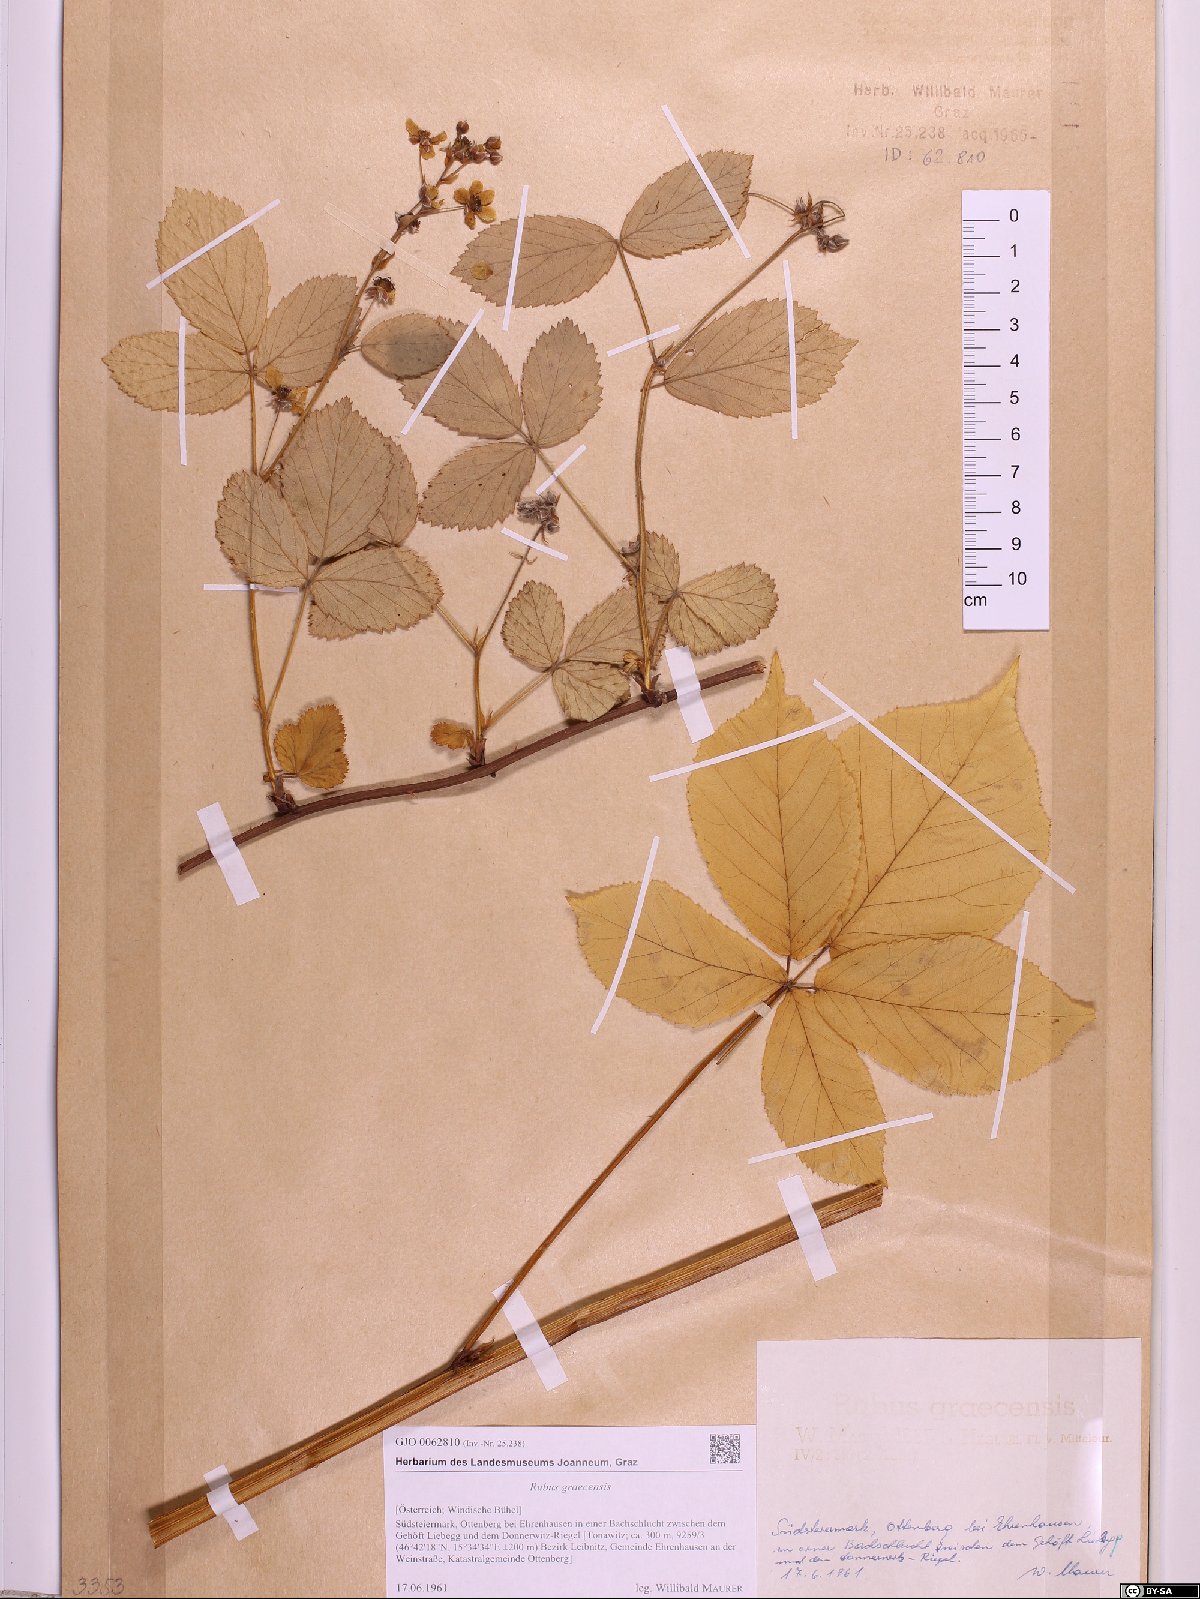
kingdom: Plantae
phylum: Tracheophyta
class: Magnoliopsida
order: Rosales
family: Rosaceae
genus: Rubus
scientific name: Rubus graecensis
